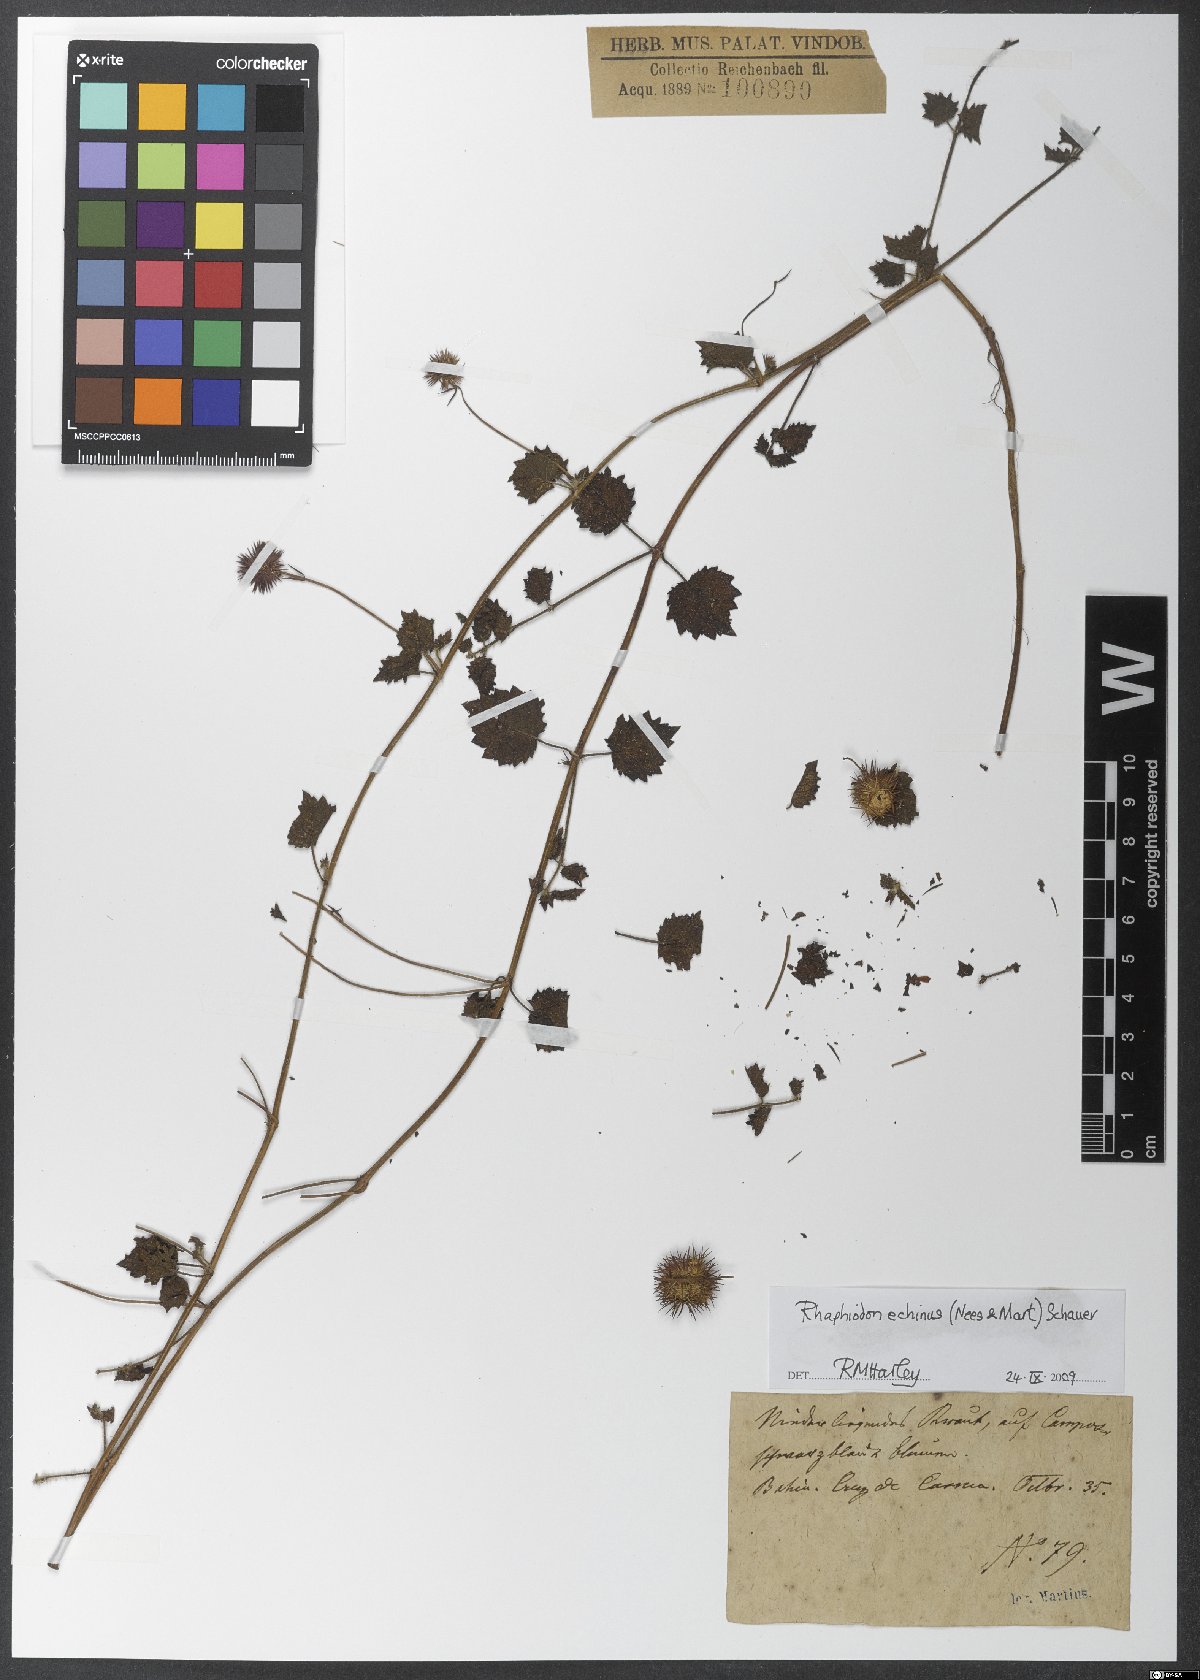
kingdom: Plantae
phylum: Tracheophyta
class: Magnoliopsida
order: Lamiales
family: Lamiaceae
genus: Rhaphiodon
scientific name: Rhaphiodon echinus
